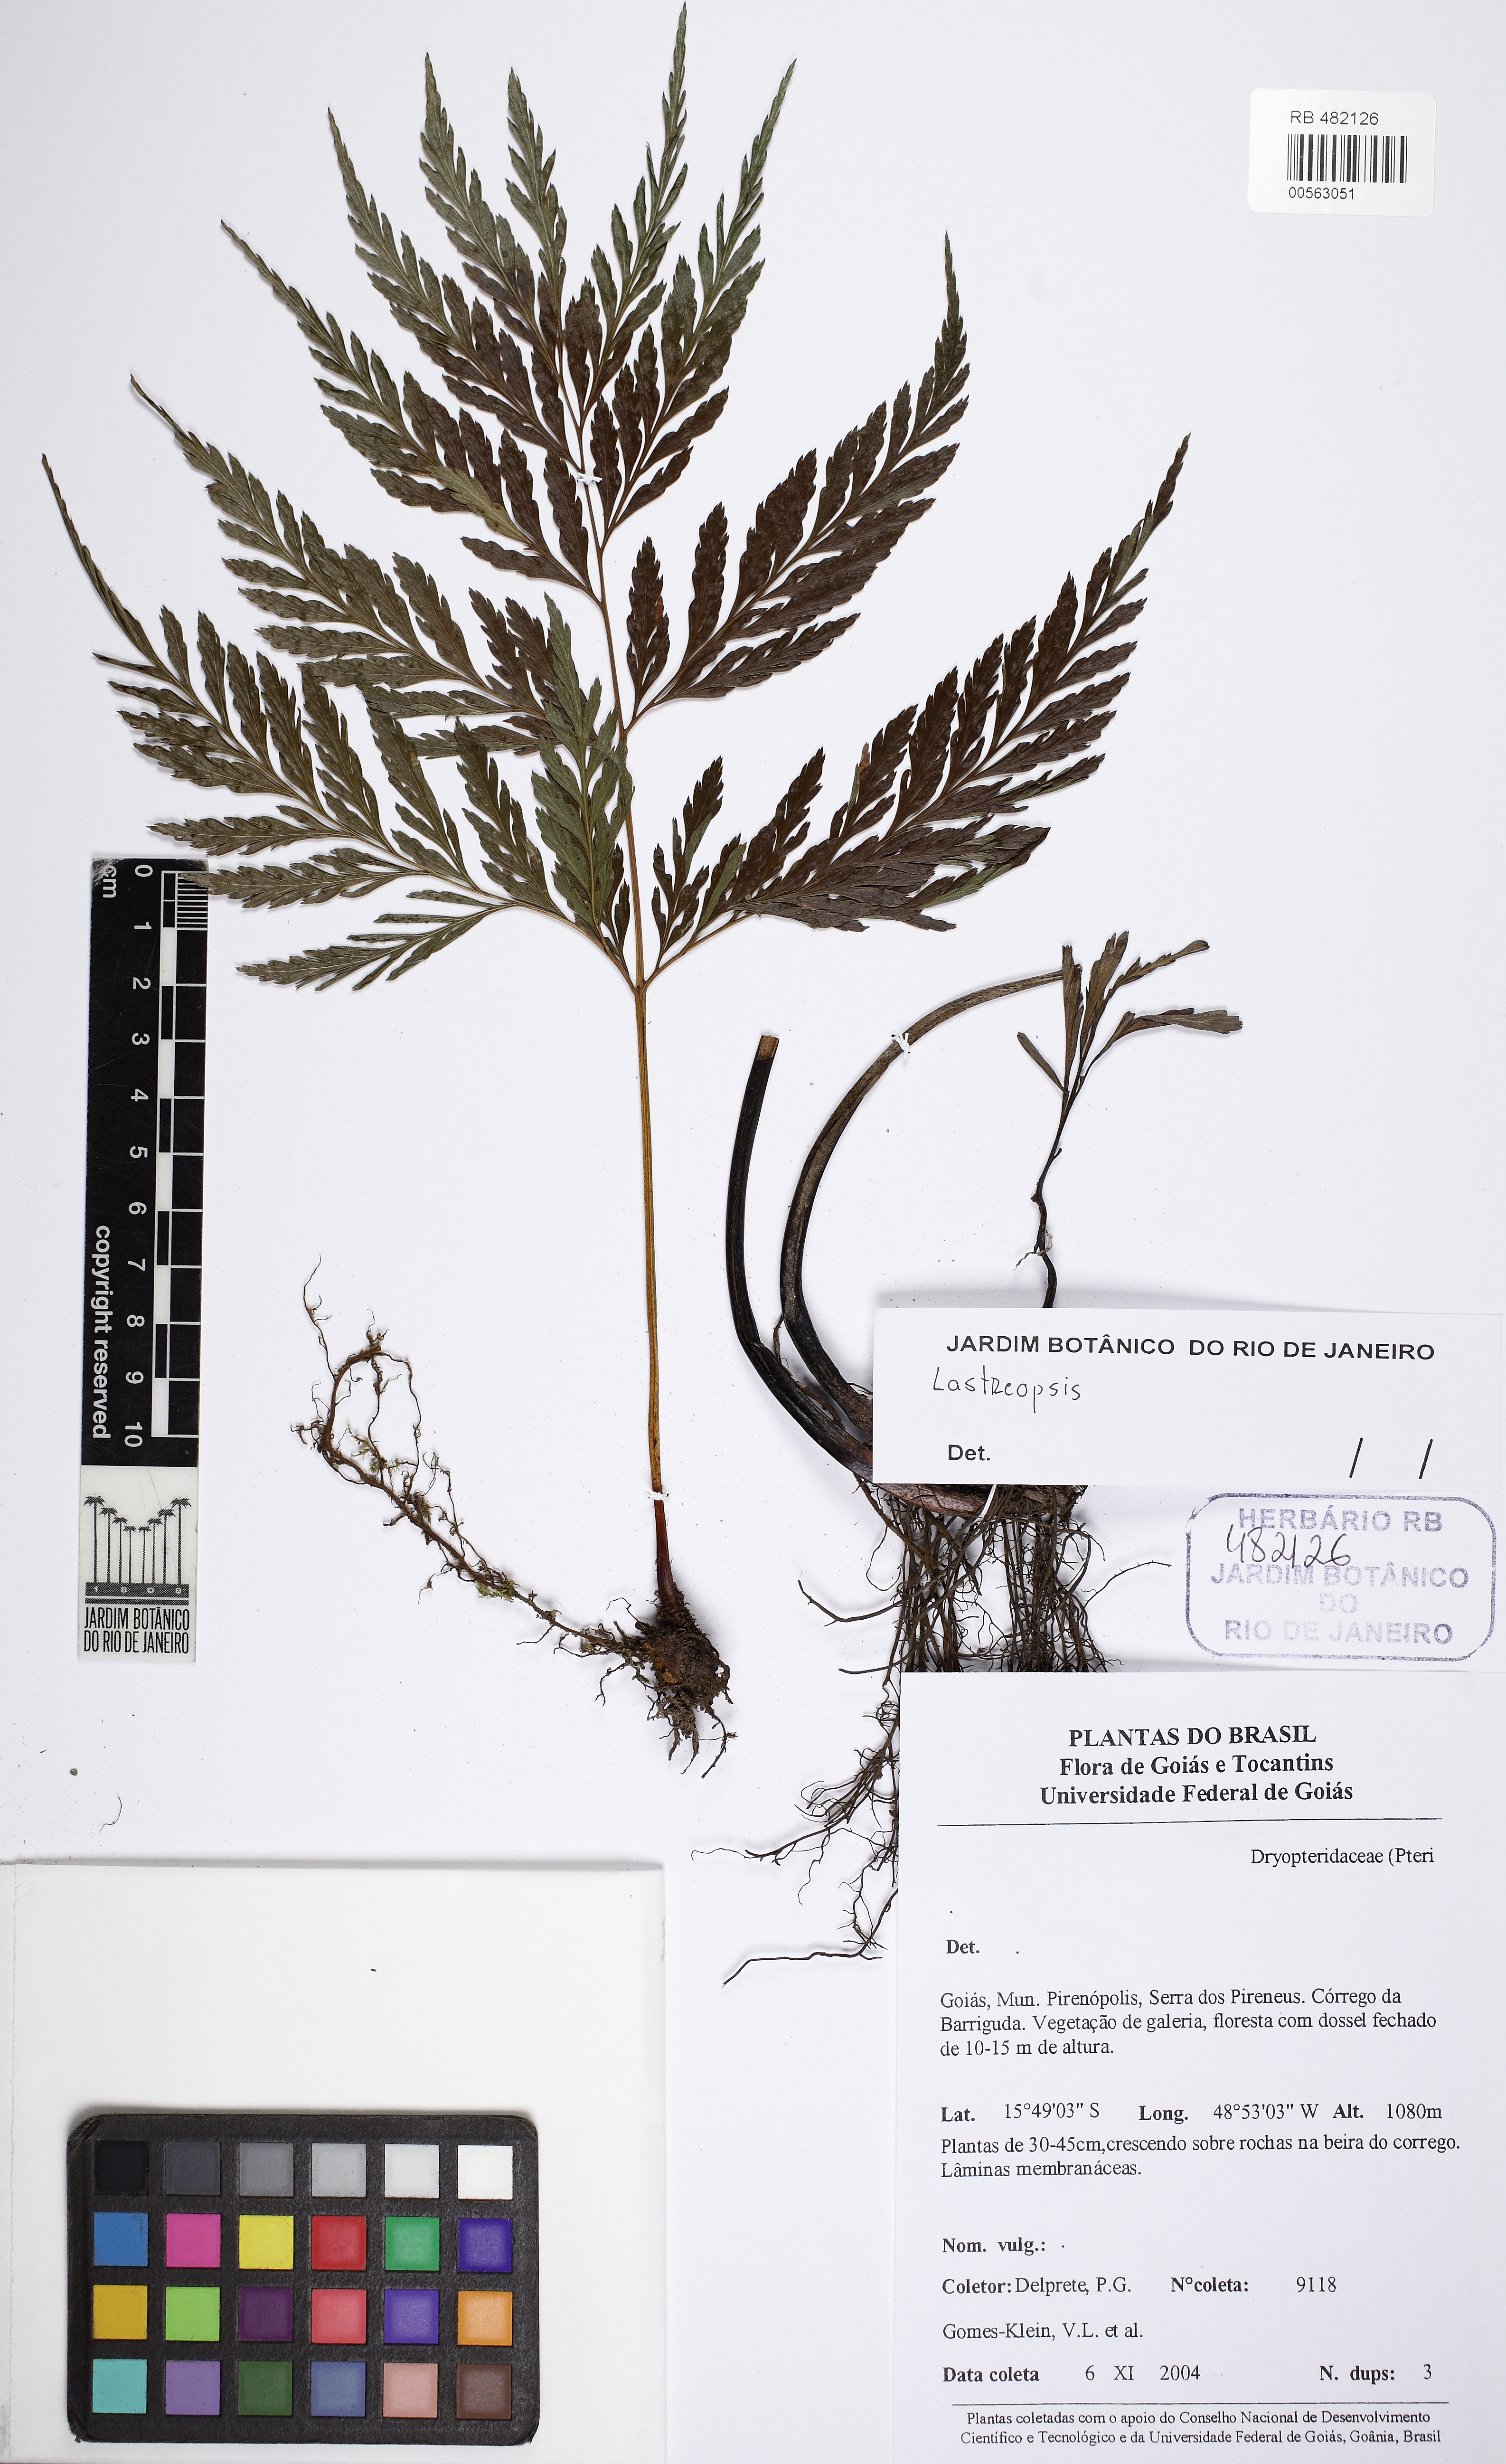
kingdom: Plantae
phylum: Tracheophyta
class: Polypodiopsida
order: Polypodiales
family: Dryopteridaceae
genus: Lastreopsis
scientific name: Lastreopsis amplissima
